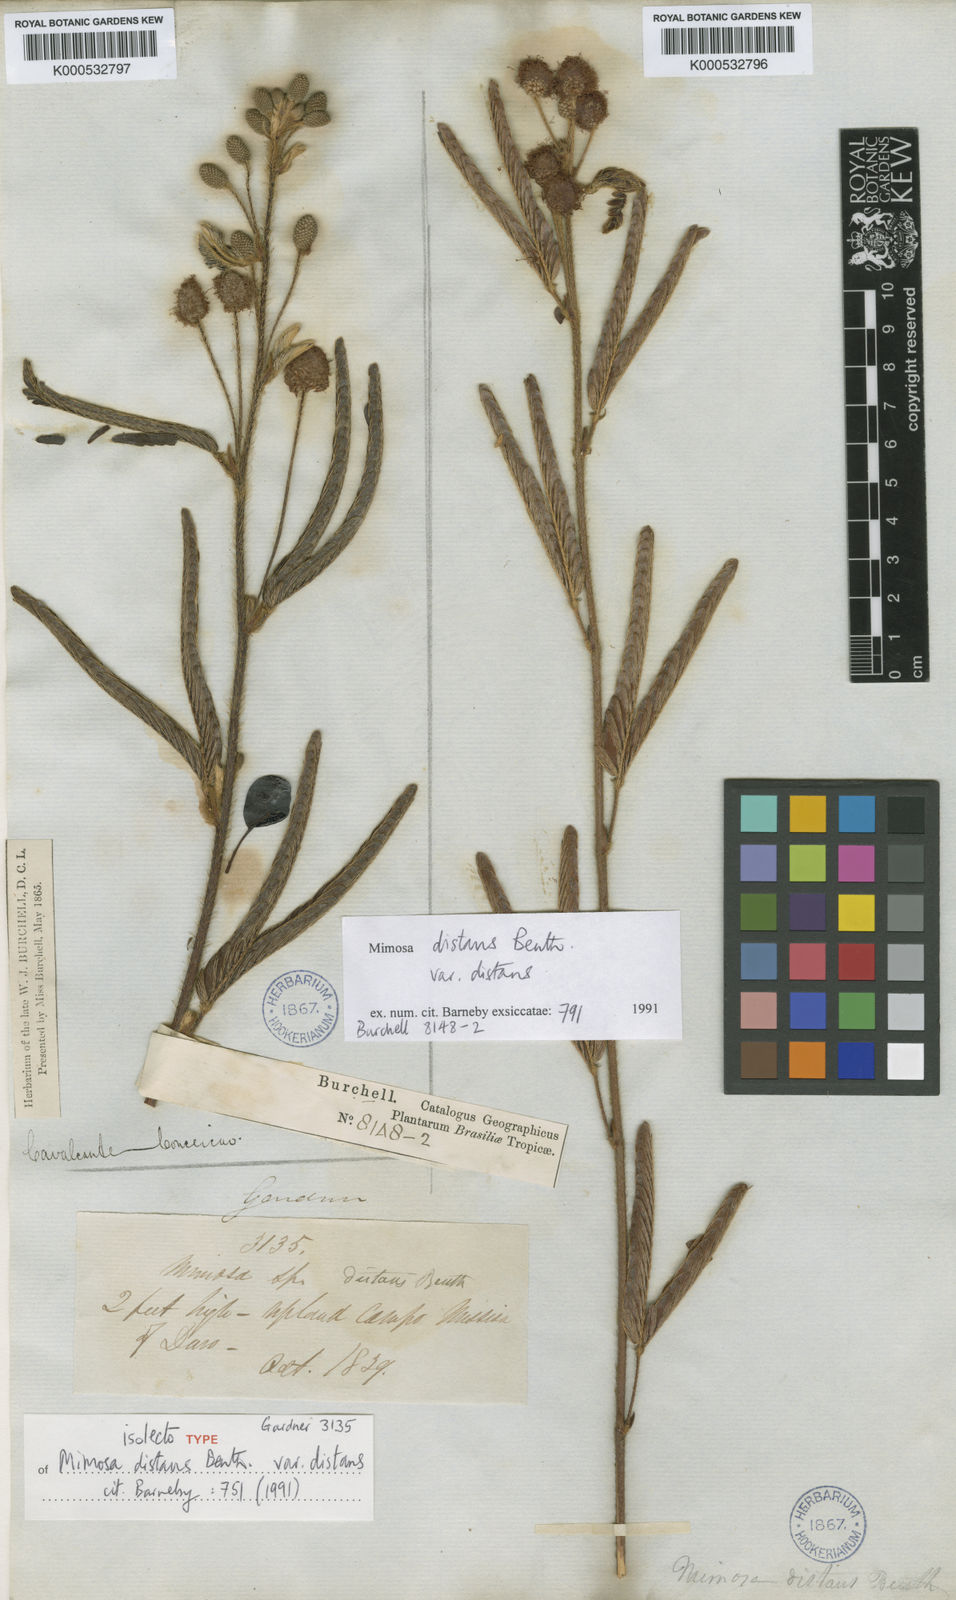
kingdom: Plantae
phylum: Tracheophyta
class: Magnoliopsida
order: Fabales
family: Fabaceae
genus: Mimosa
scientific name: Mimosa distans
